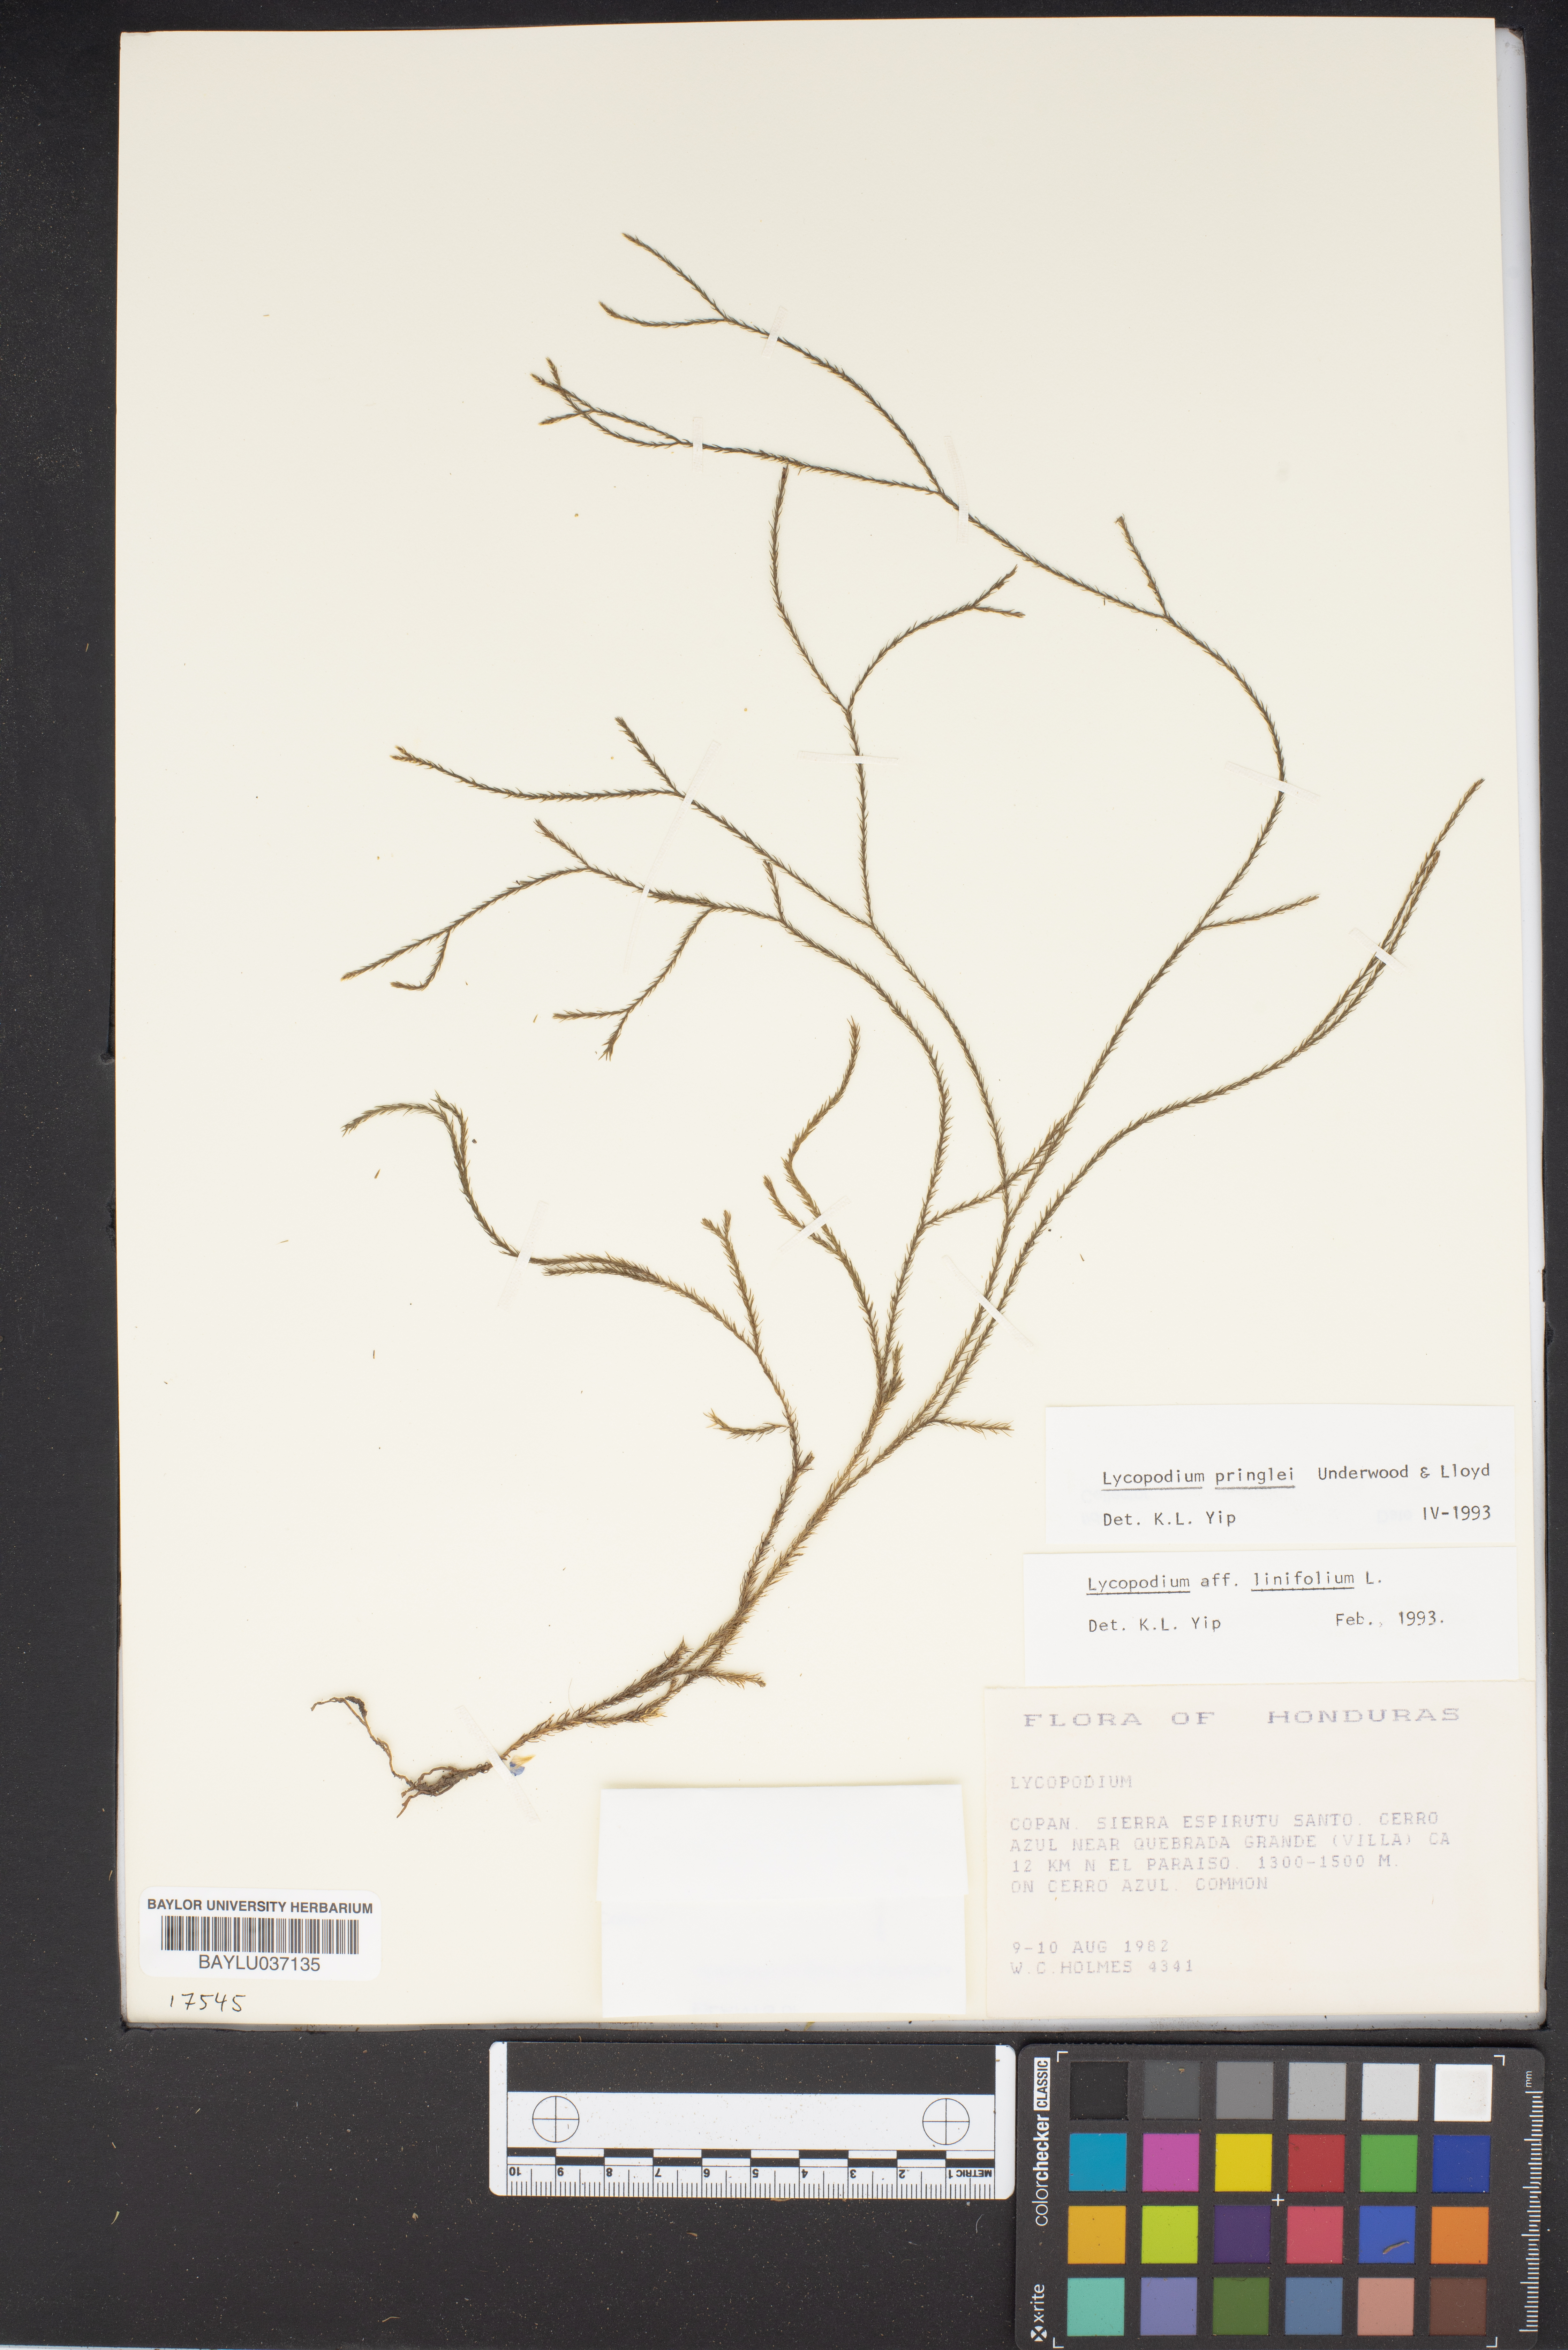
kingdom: Plantae
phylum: Tracheophyta
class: Lycopodiopsida
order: Lycopodiales
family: Lycopodiaceae
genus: Phlegmariurus
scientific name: Phlegmariurus pringlei
